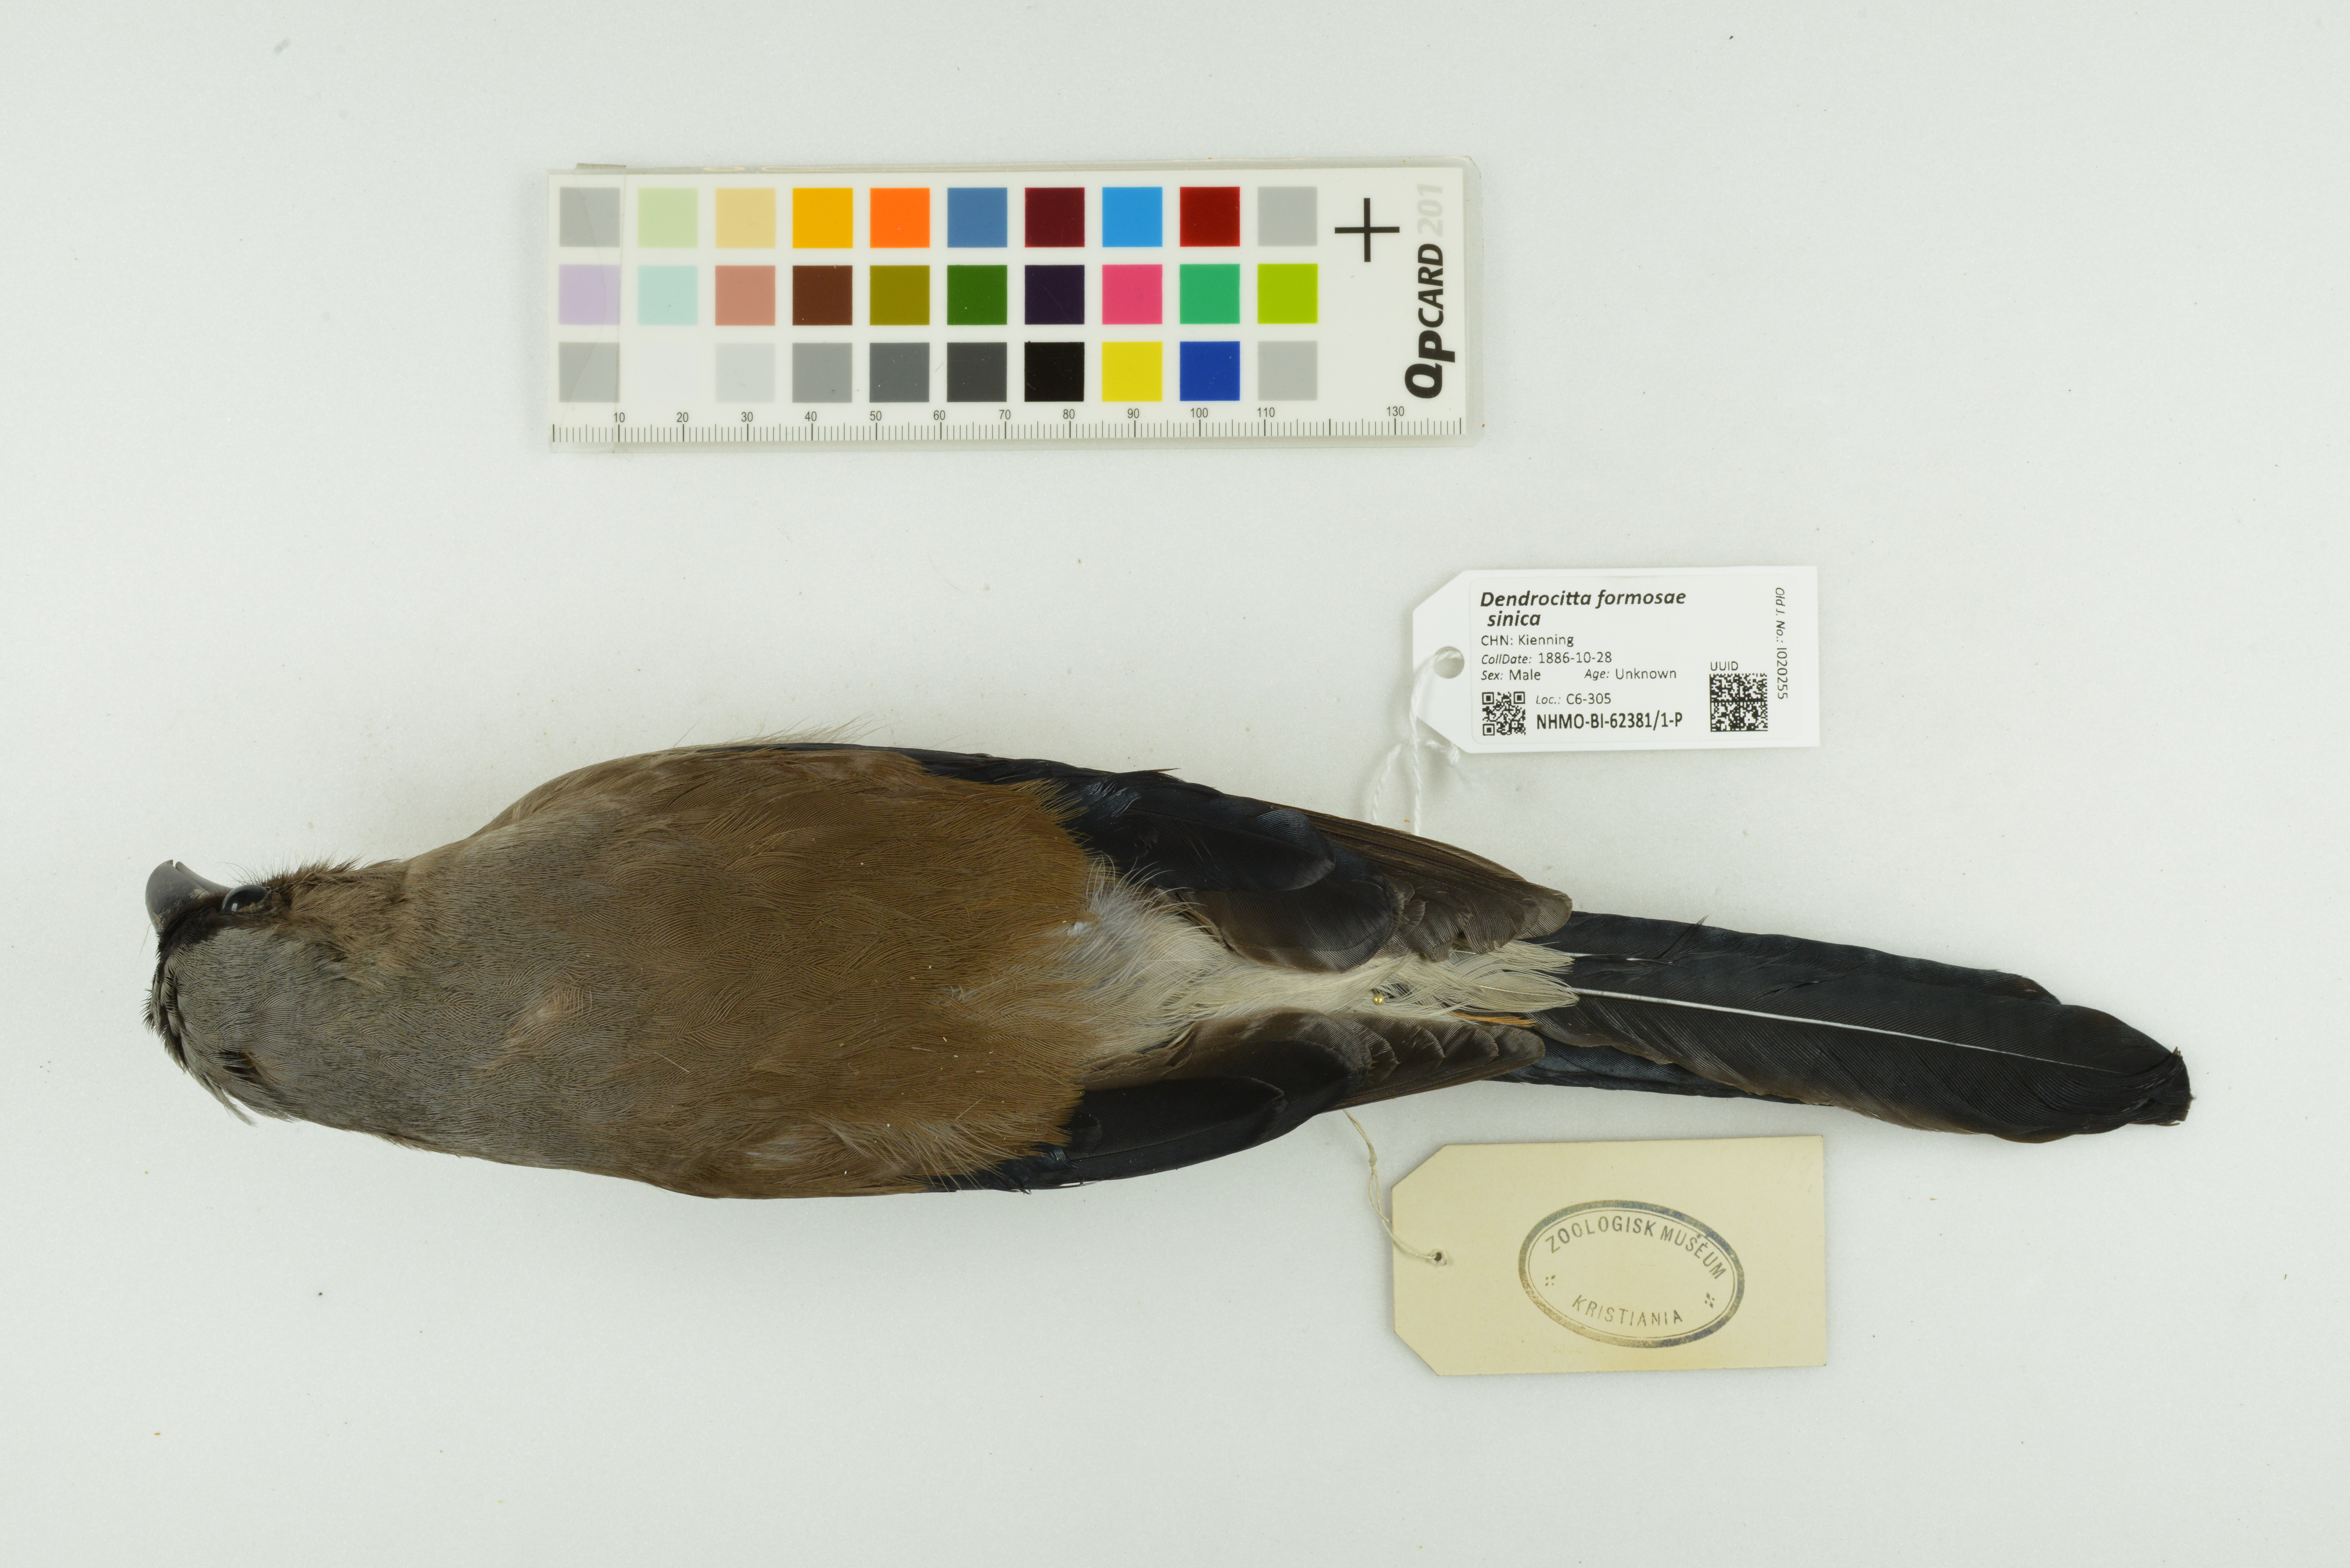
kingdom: Animalia
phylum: Chordata
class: Aves
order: Passeriformes
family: Corvidae
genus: Dendrocitta
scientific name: Dendrocitta formosae
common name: Grey treepie
